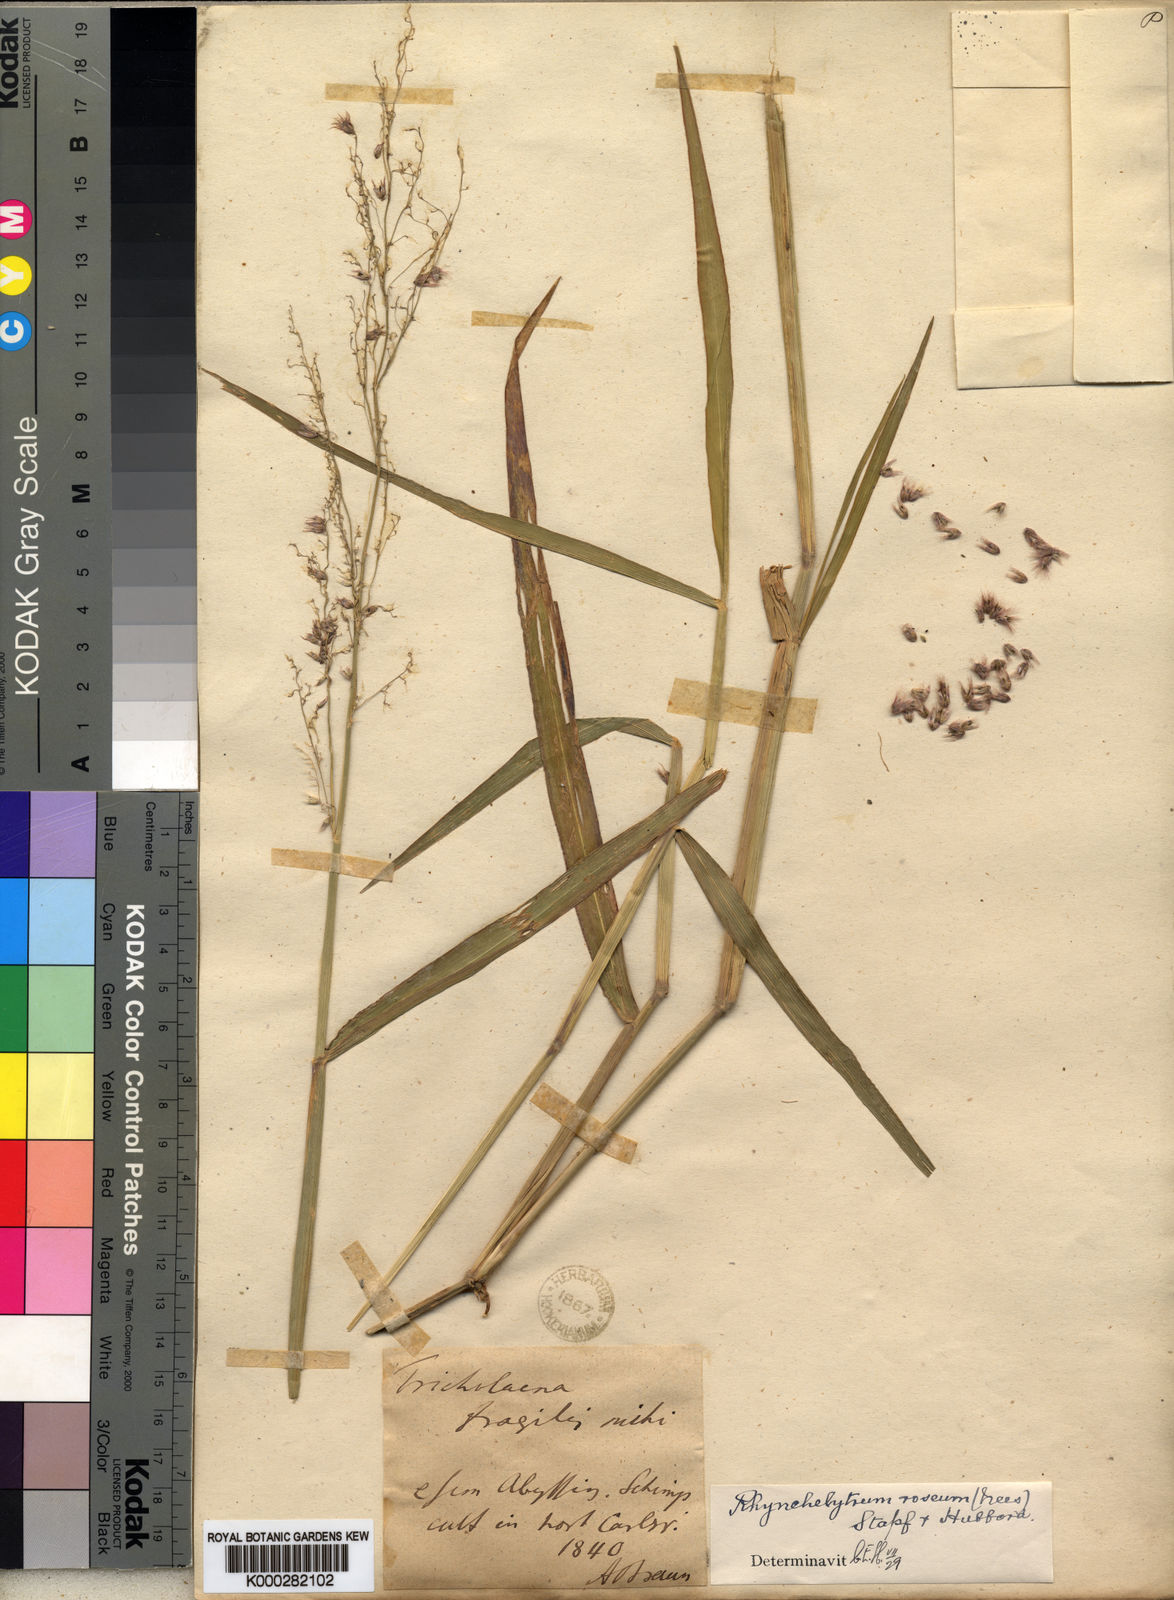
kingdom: Plantae
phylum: Tracheophyta
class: Liliopsida
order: Poales
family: Poaceae
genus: Melinis
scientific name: Melinis repens
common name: Rose natal grass
